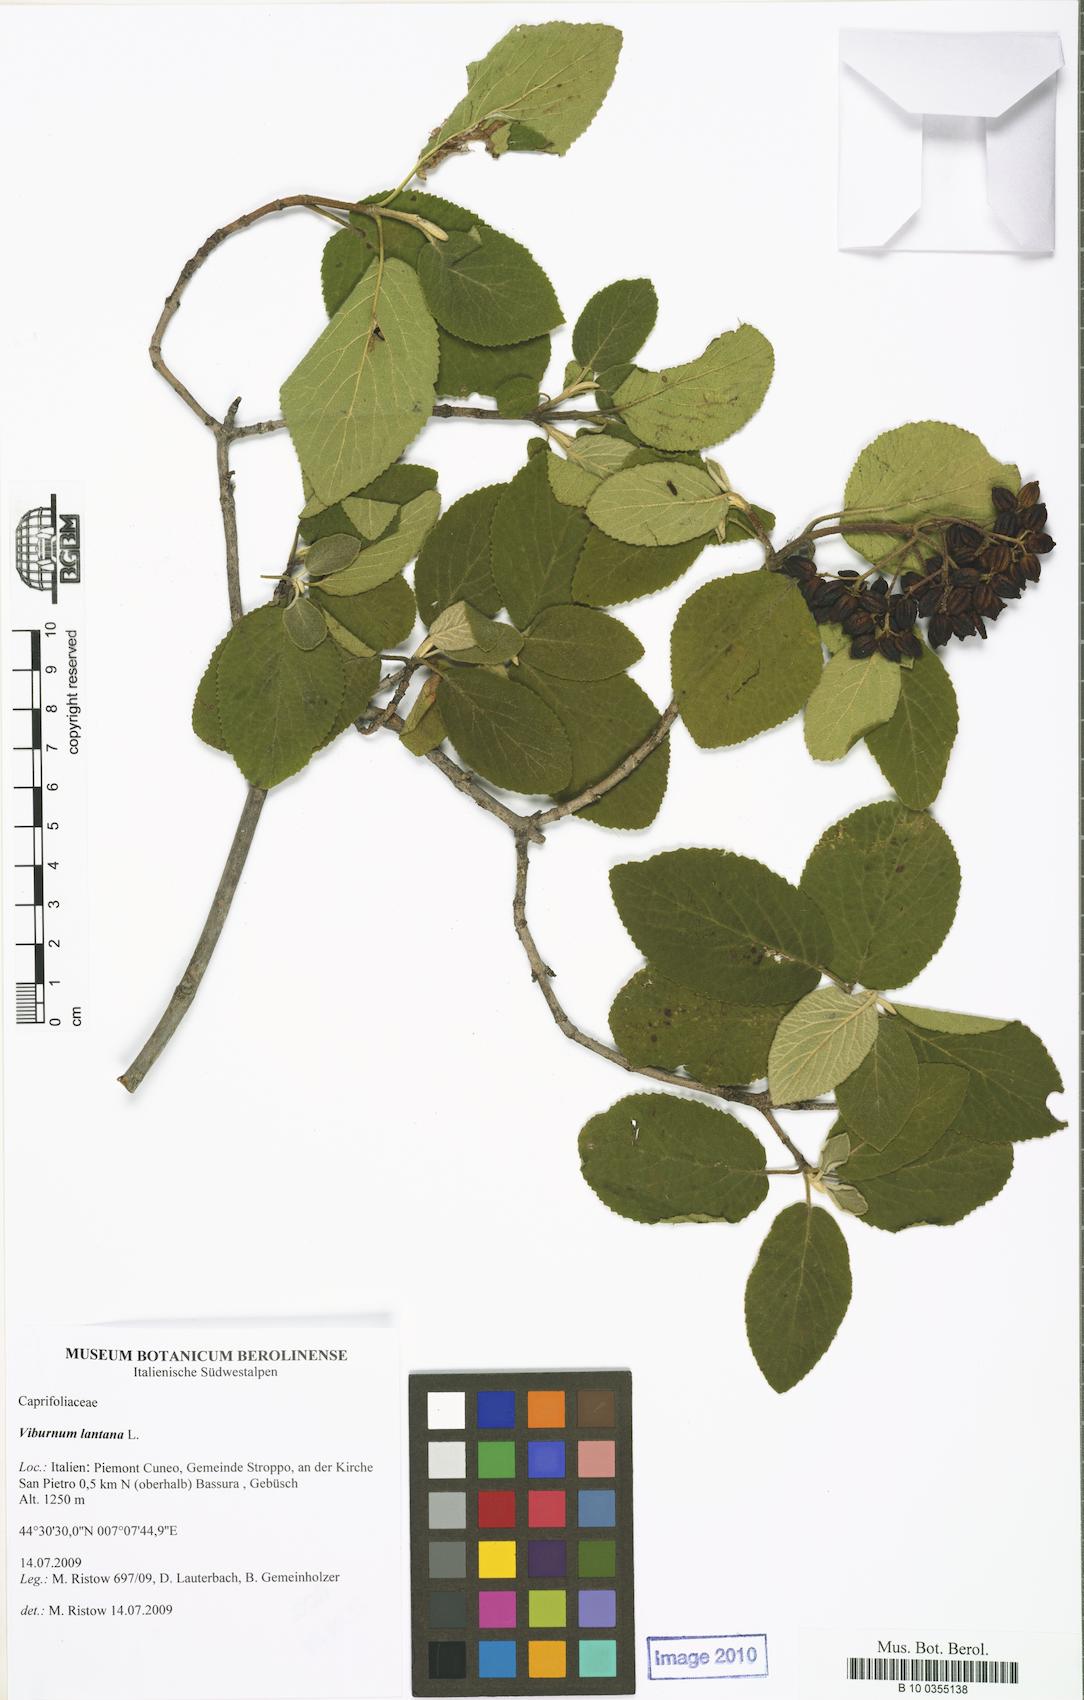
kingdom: Plantae
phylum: Tracheophyta
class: Magnoliopsida
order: Dipsacales
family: Viburnaceae
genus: Viburnum
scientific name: Viburnum lantana
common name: Wayfaring tree
